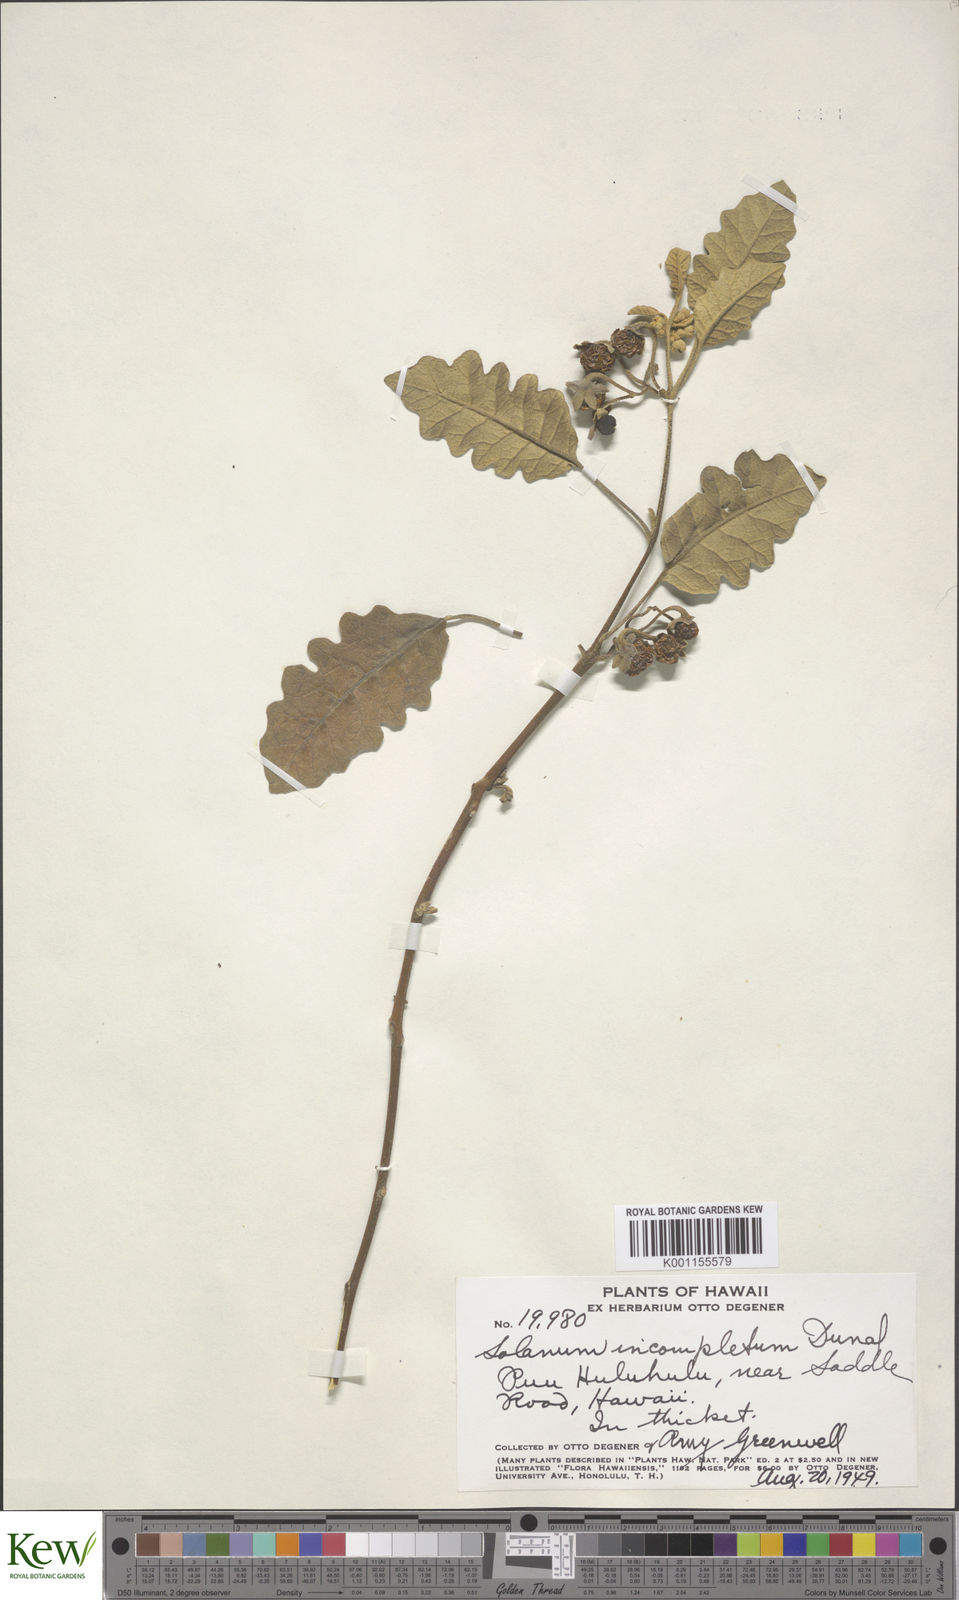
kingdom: Plantae
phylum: Tracheophyta
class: Magnoliopsida
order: Solanales
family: Solanaceae
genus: Solanum
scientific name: Solanum incompletum
